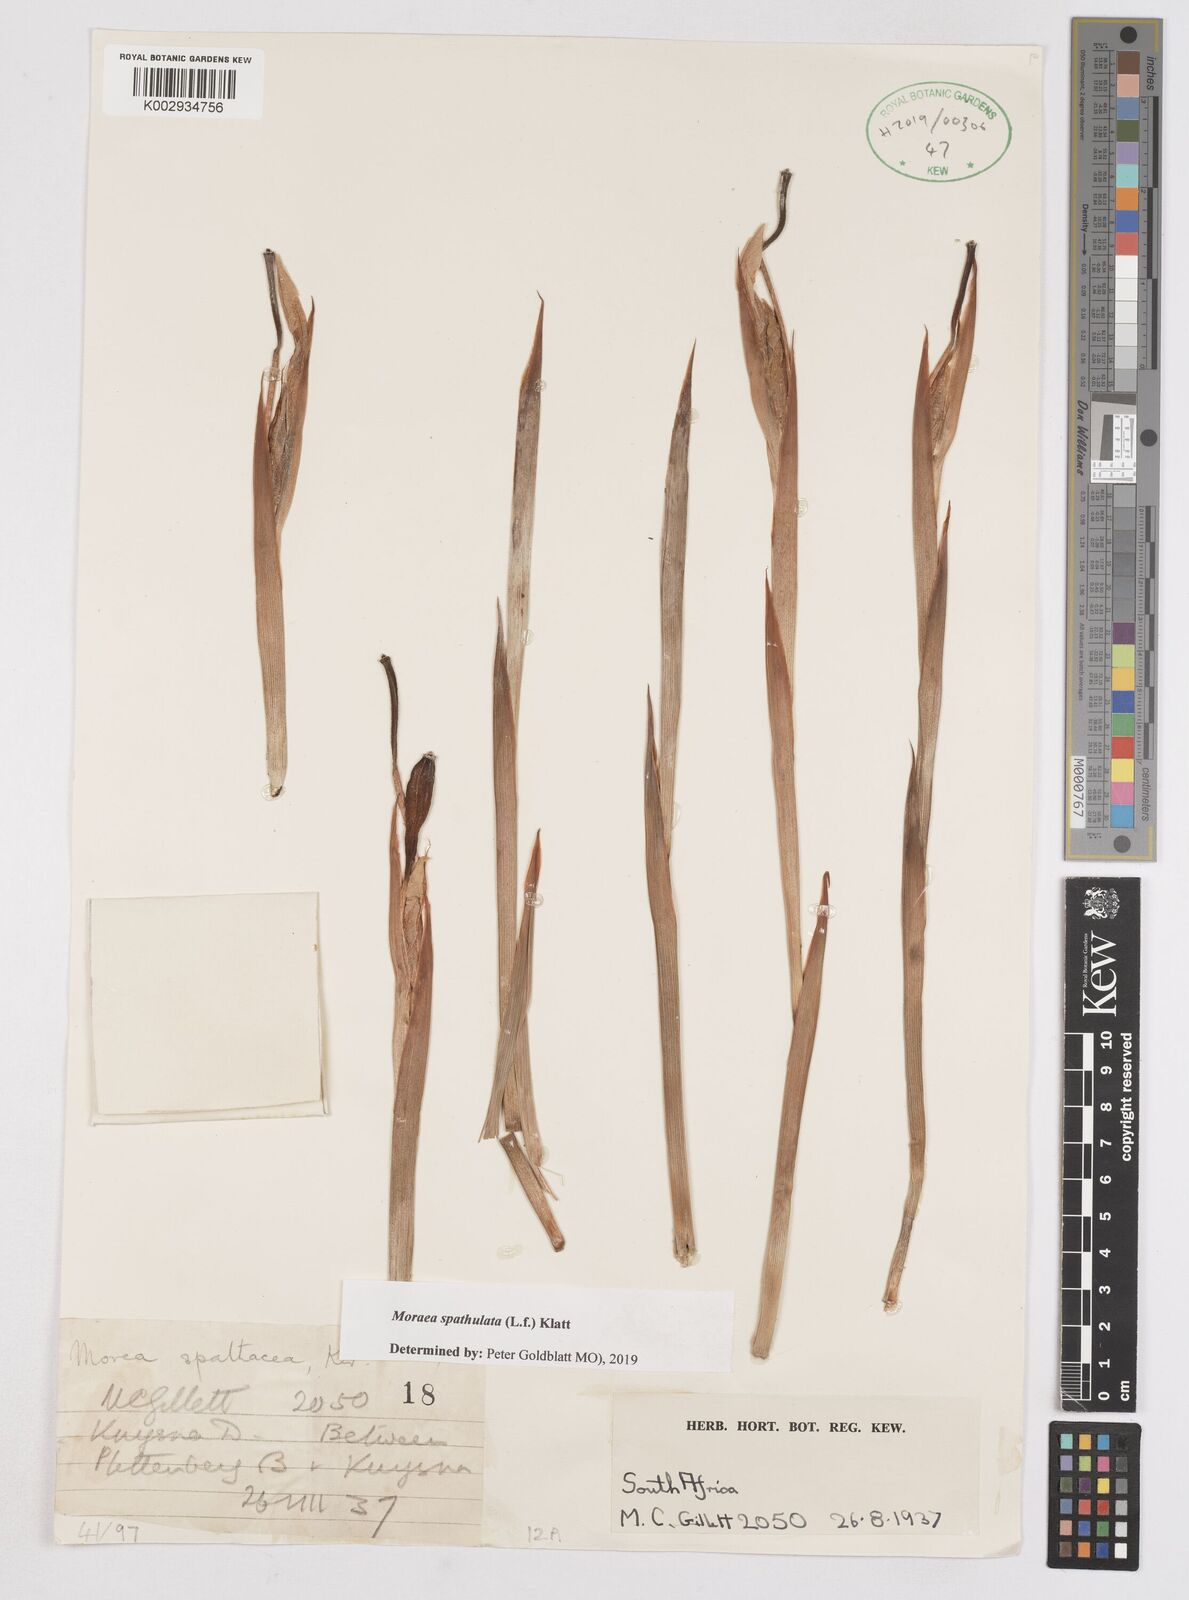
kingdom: Plantae
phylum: Tracheophyta
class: Liliopsida
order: Asparagales
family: Iridaceae
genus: Moraea
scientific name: Moraea spathulata
